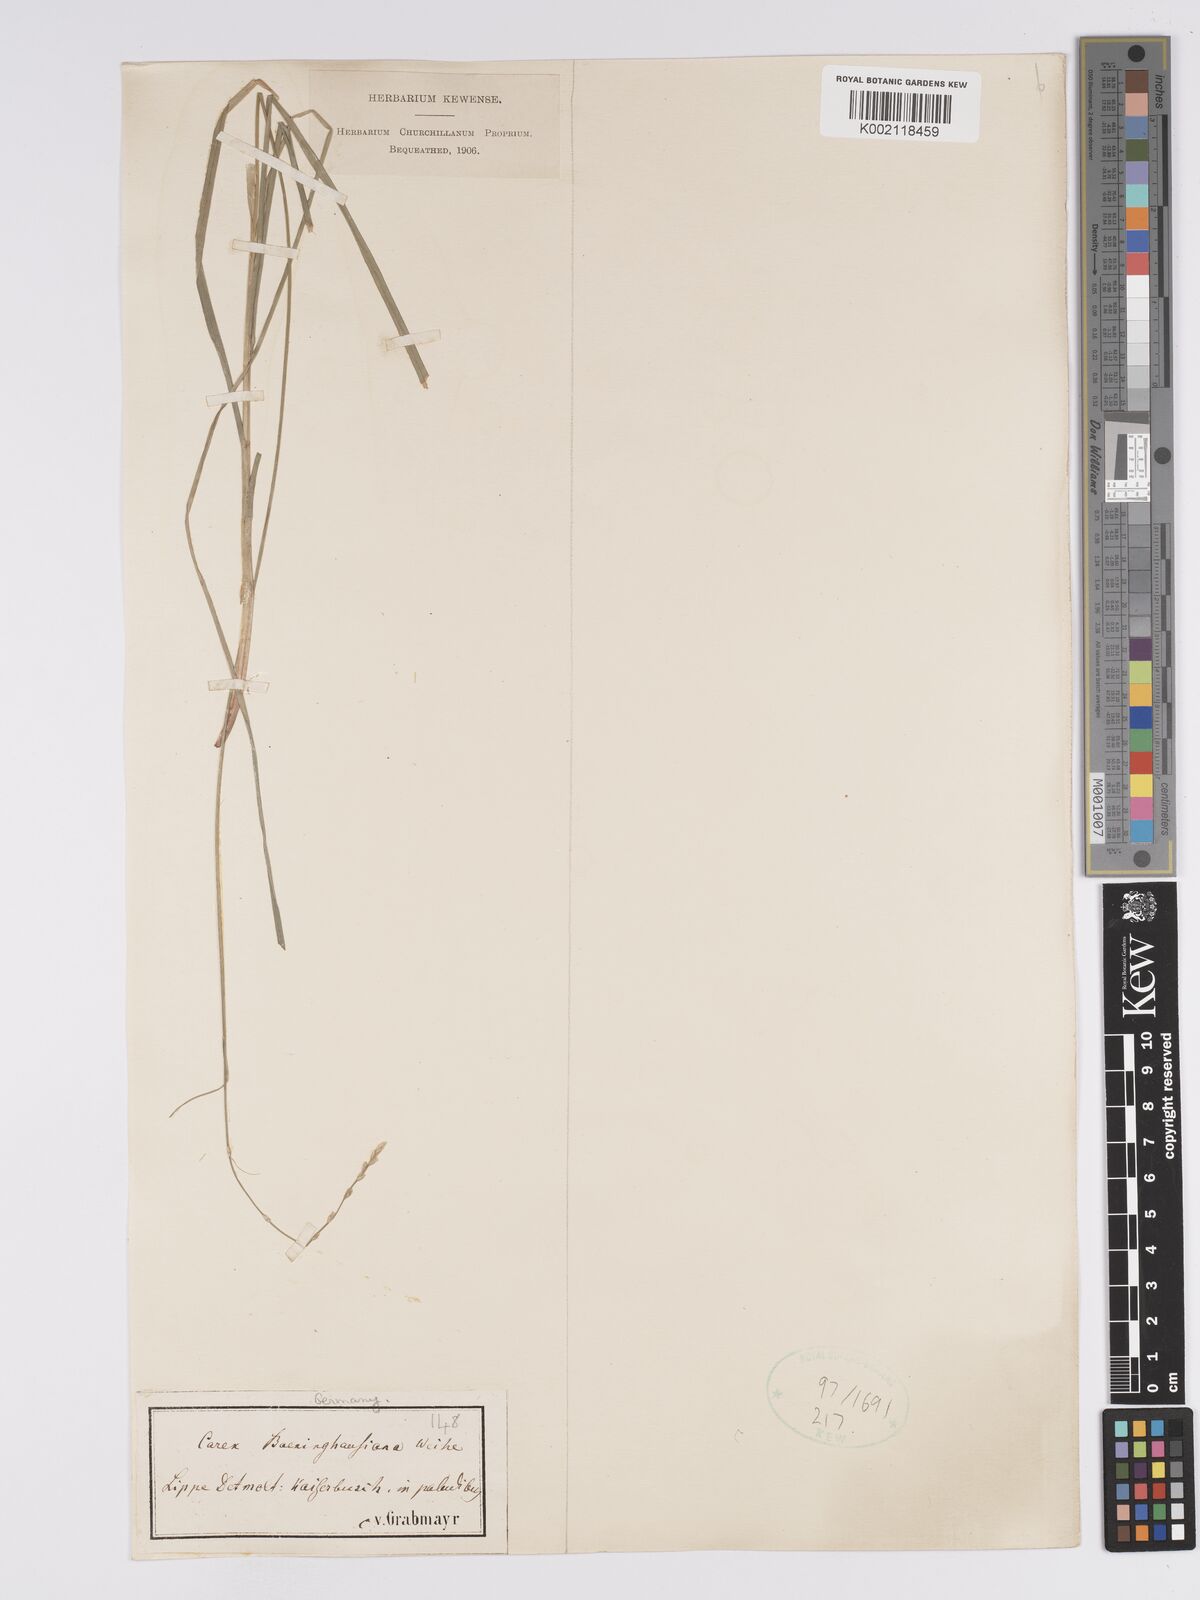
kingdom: Plantae
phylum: Tracheophyta
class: Liliopsida
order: Poales
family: Cyperaceae
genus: Carex
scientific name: Carex boenninghausiana
